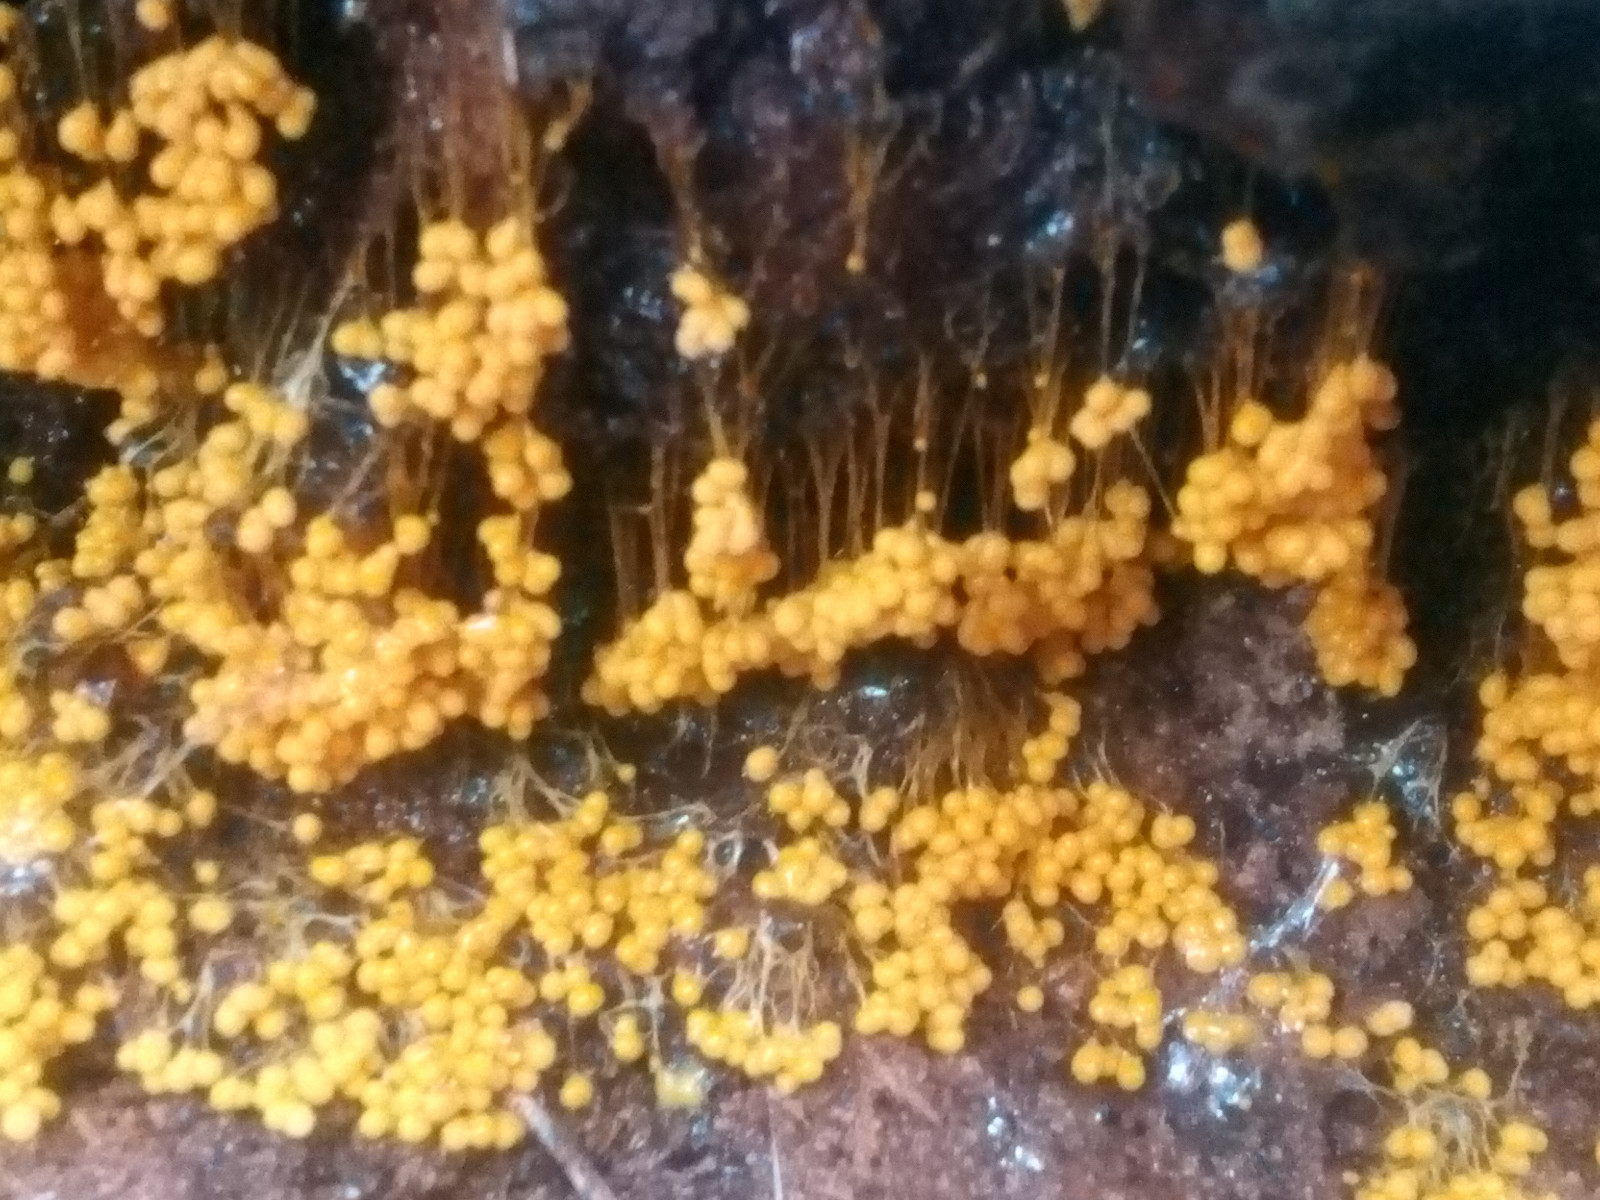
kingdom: Protozoa
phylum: Mycetozoa
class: Myxomycetes
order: Physarales
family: Physaraceae
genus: Badhamia
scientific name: Badhamia utricularis
